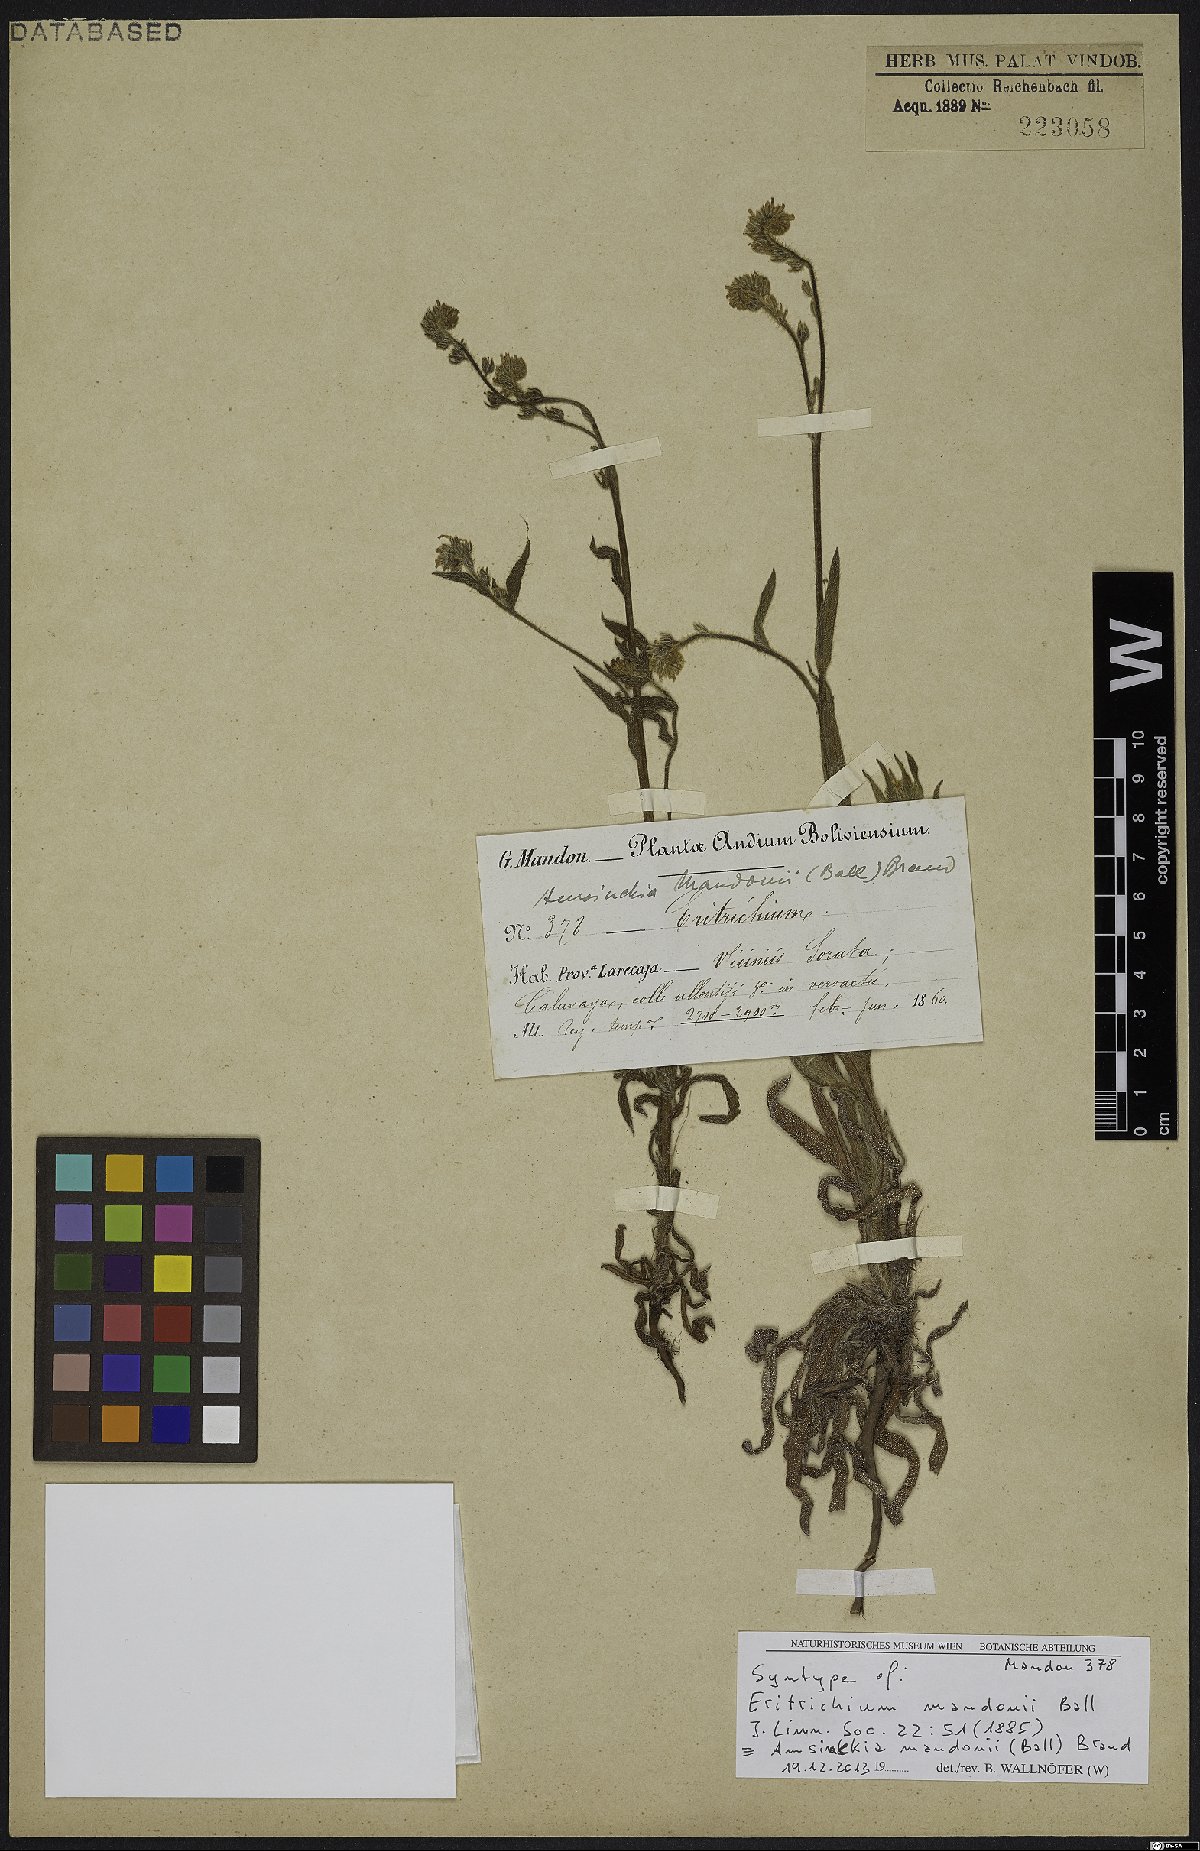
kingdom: Plantae
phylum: Tracheophyta
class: Magnoliopsida
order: Boraginales
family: Boraginaceae
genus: Amsinckia
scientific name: Amsinckia calycina
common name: Hairy fiddleneck
